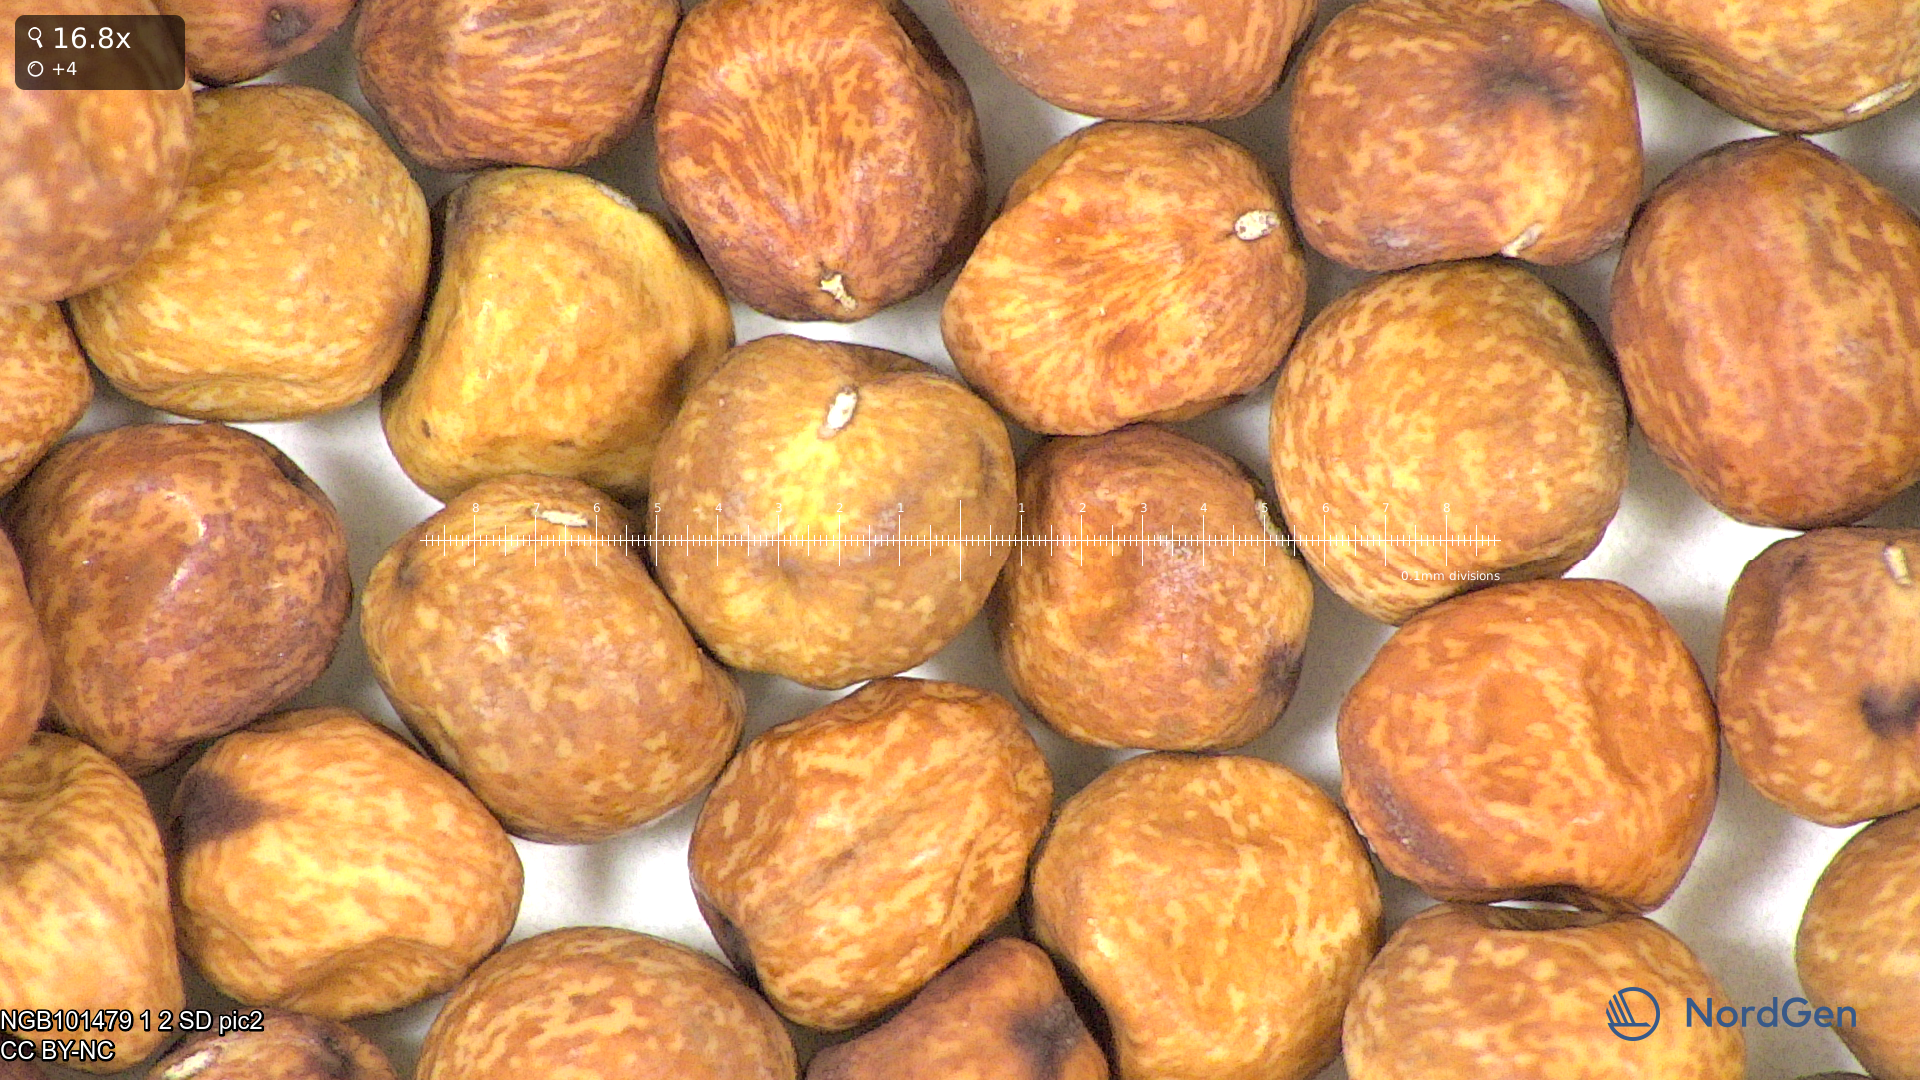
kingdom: Plantae
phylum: Tracheophyta
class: Magnoliopsida
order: Fabales
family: Fabaceae
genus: Lathyrus
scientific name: Lathyrus oleraceus
